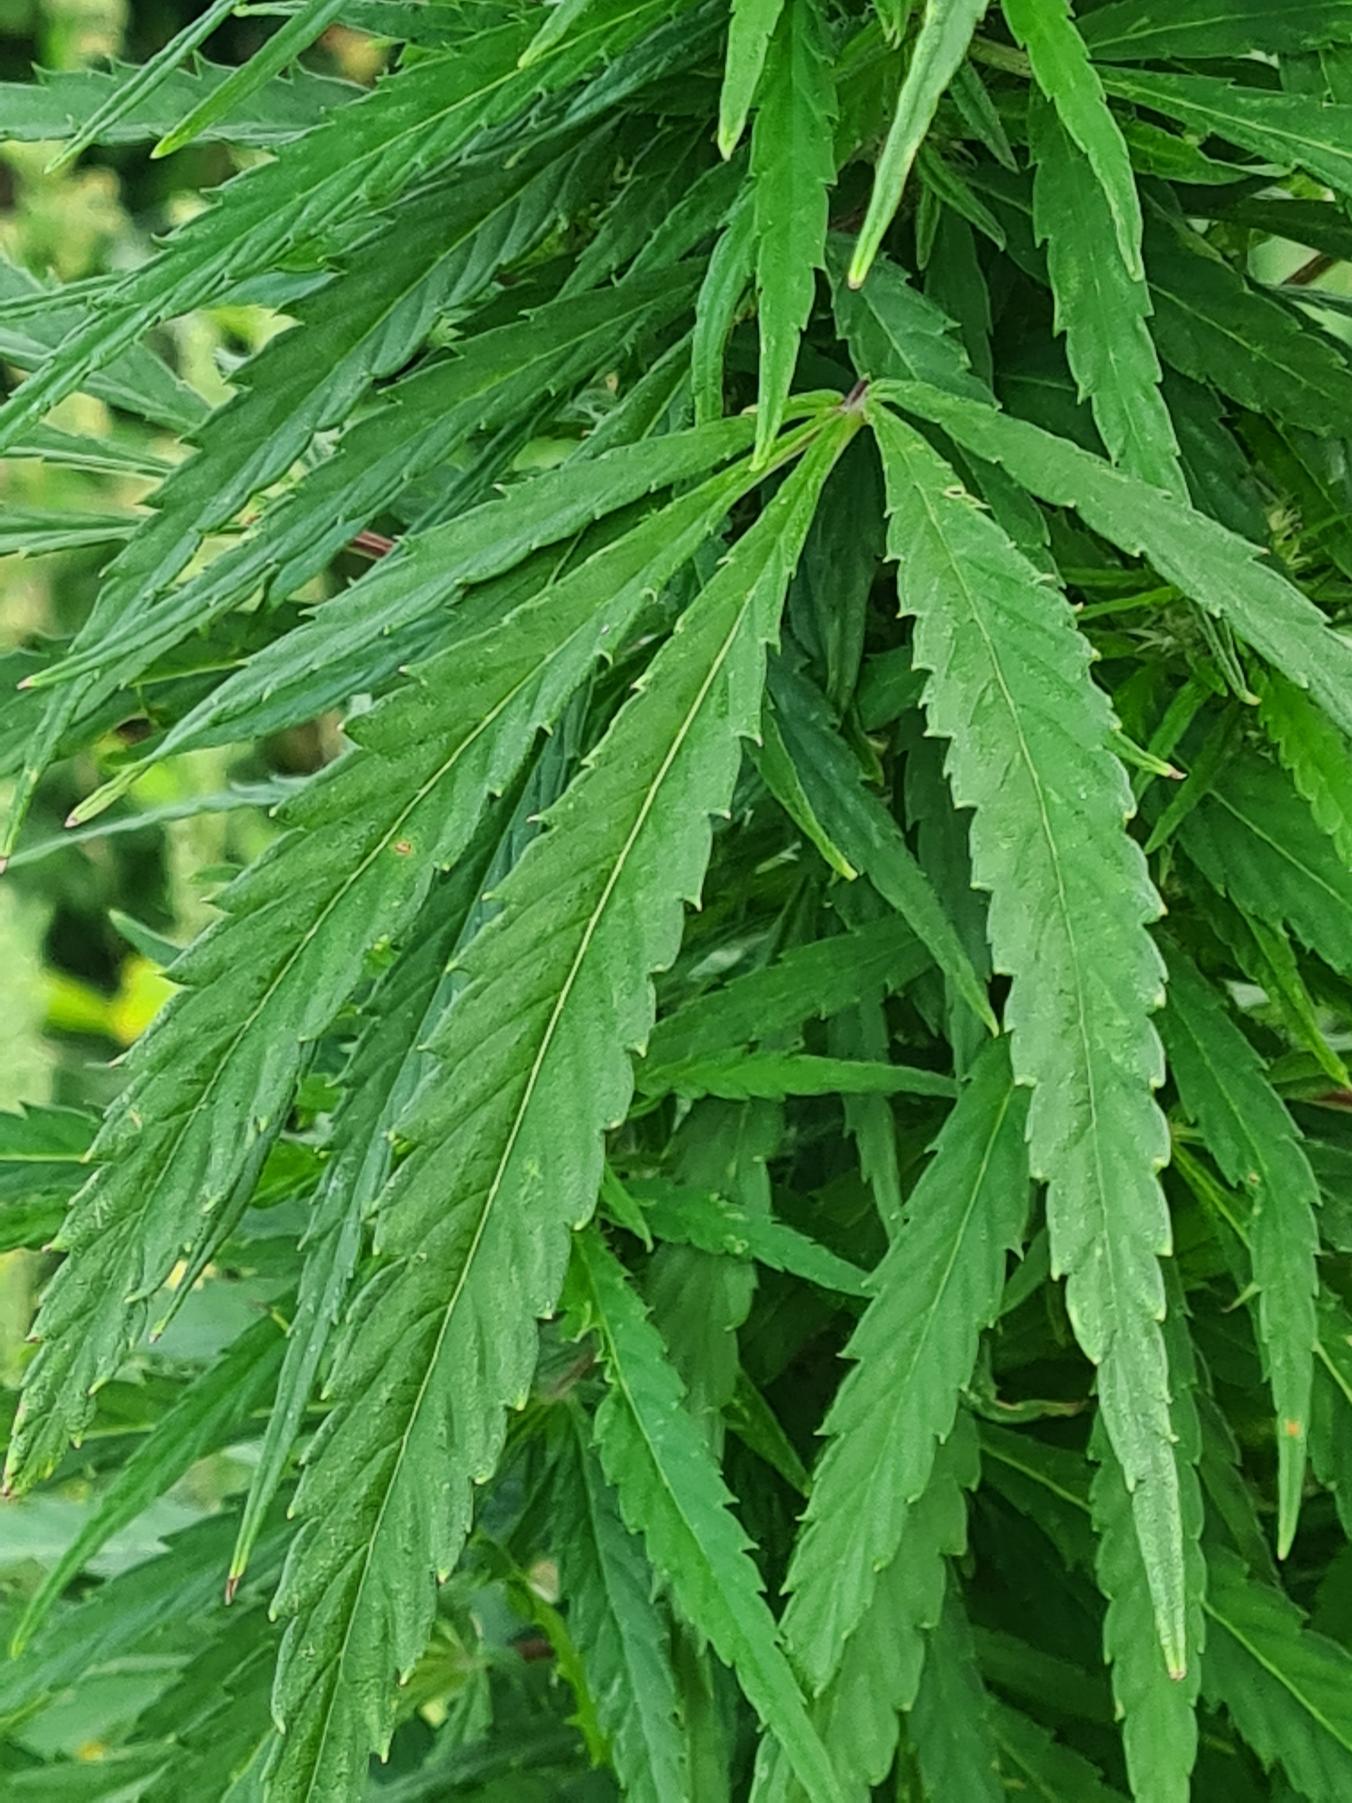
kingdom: Plantae
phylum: Tracheophyta
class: Magnoliopsida
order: Rosales
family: Cannabaceae
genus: Cannabis
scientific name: Cannabis sativa
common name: Hamp
